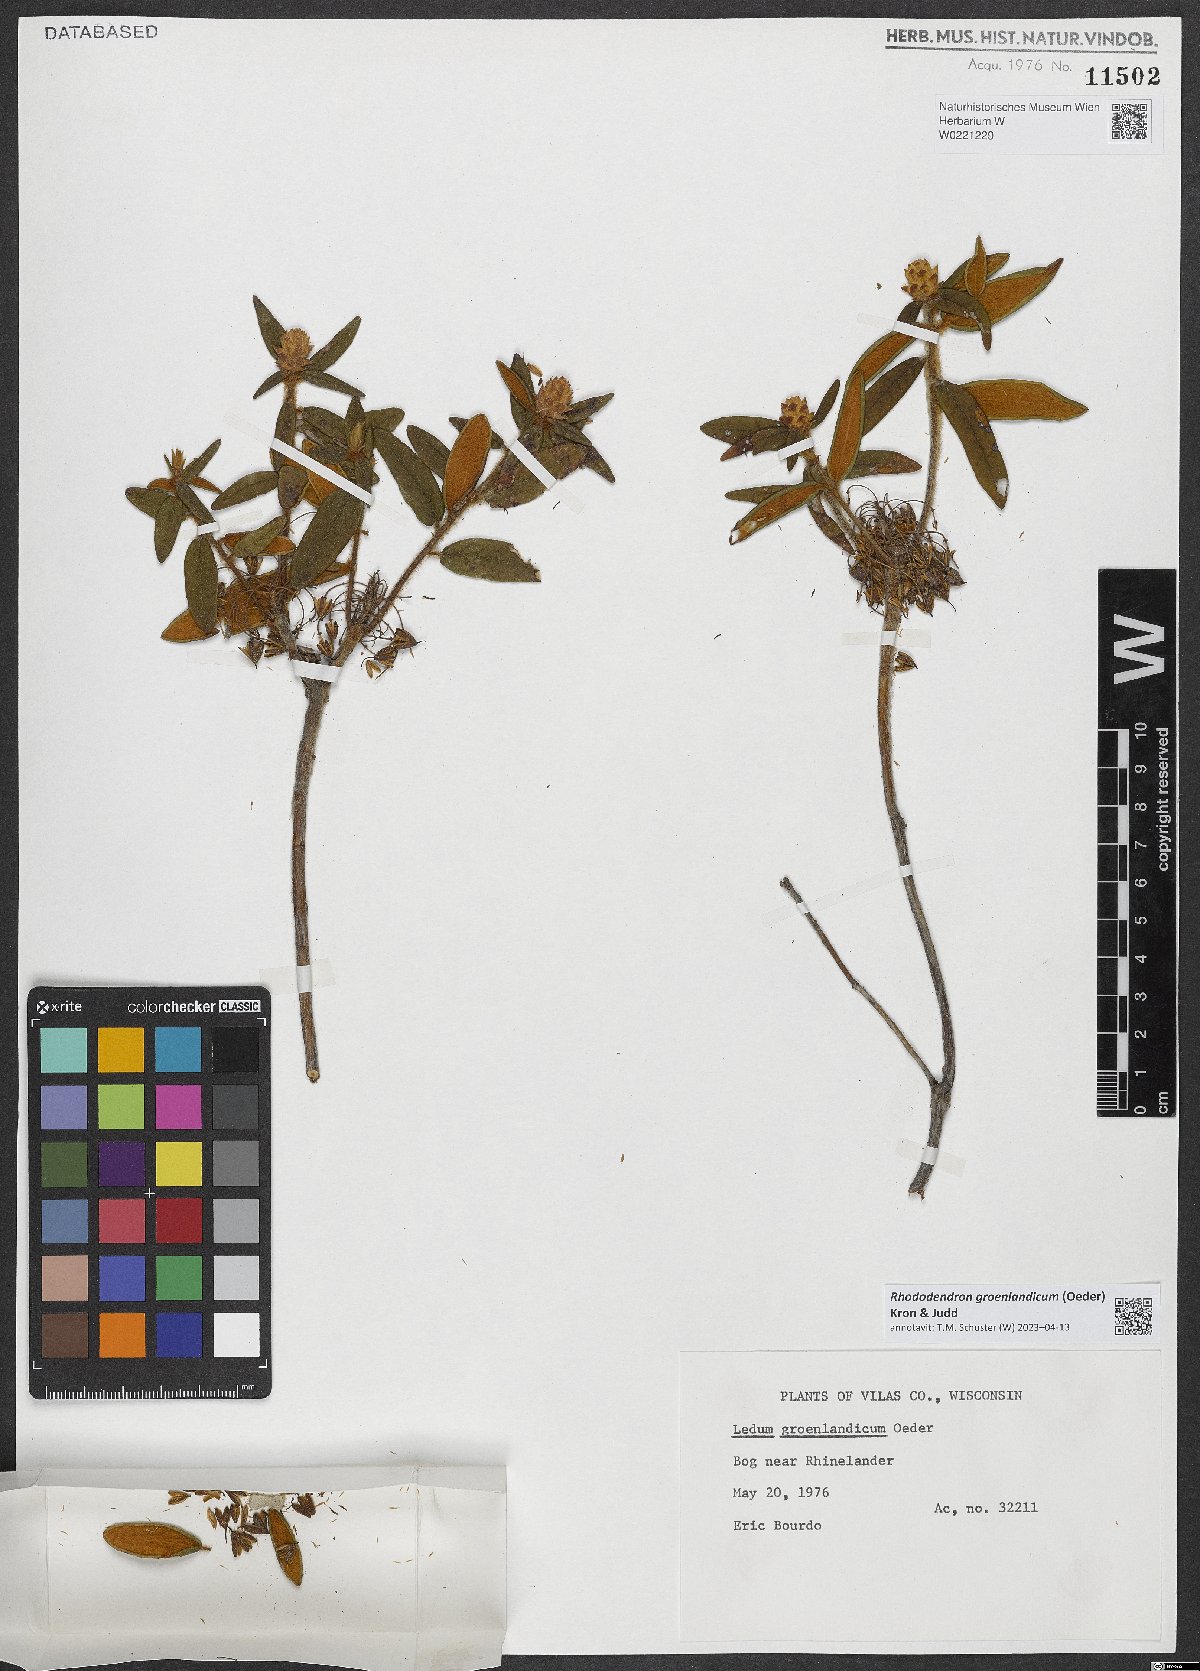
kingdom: Plantae
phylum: Tracheophyta
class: Magnoliopsida
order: Ericales
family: Ericaceae
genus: Rhododendron
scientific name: Rhododendron groenlandicum
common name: Bog labrador tea
